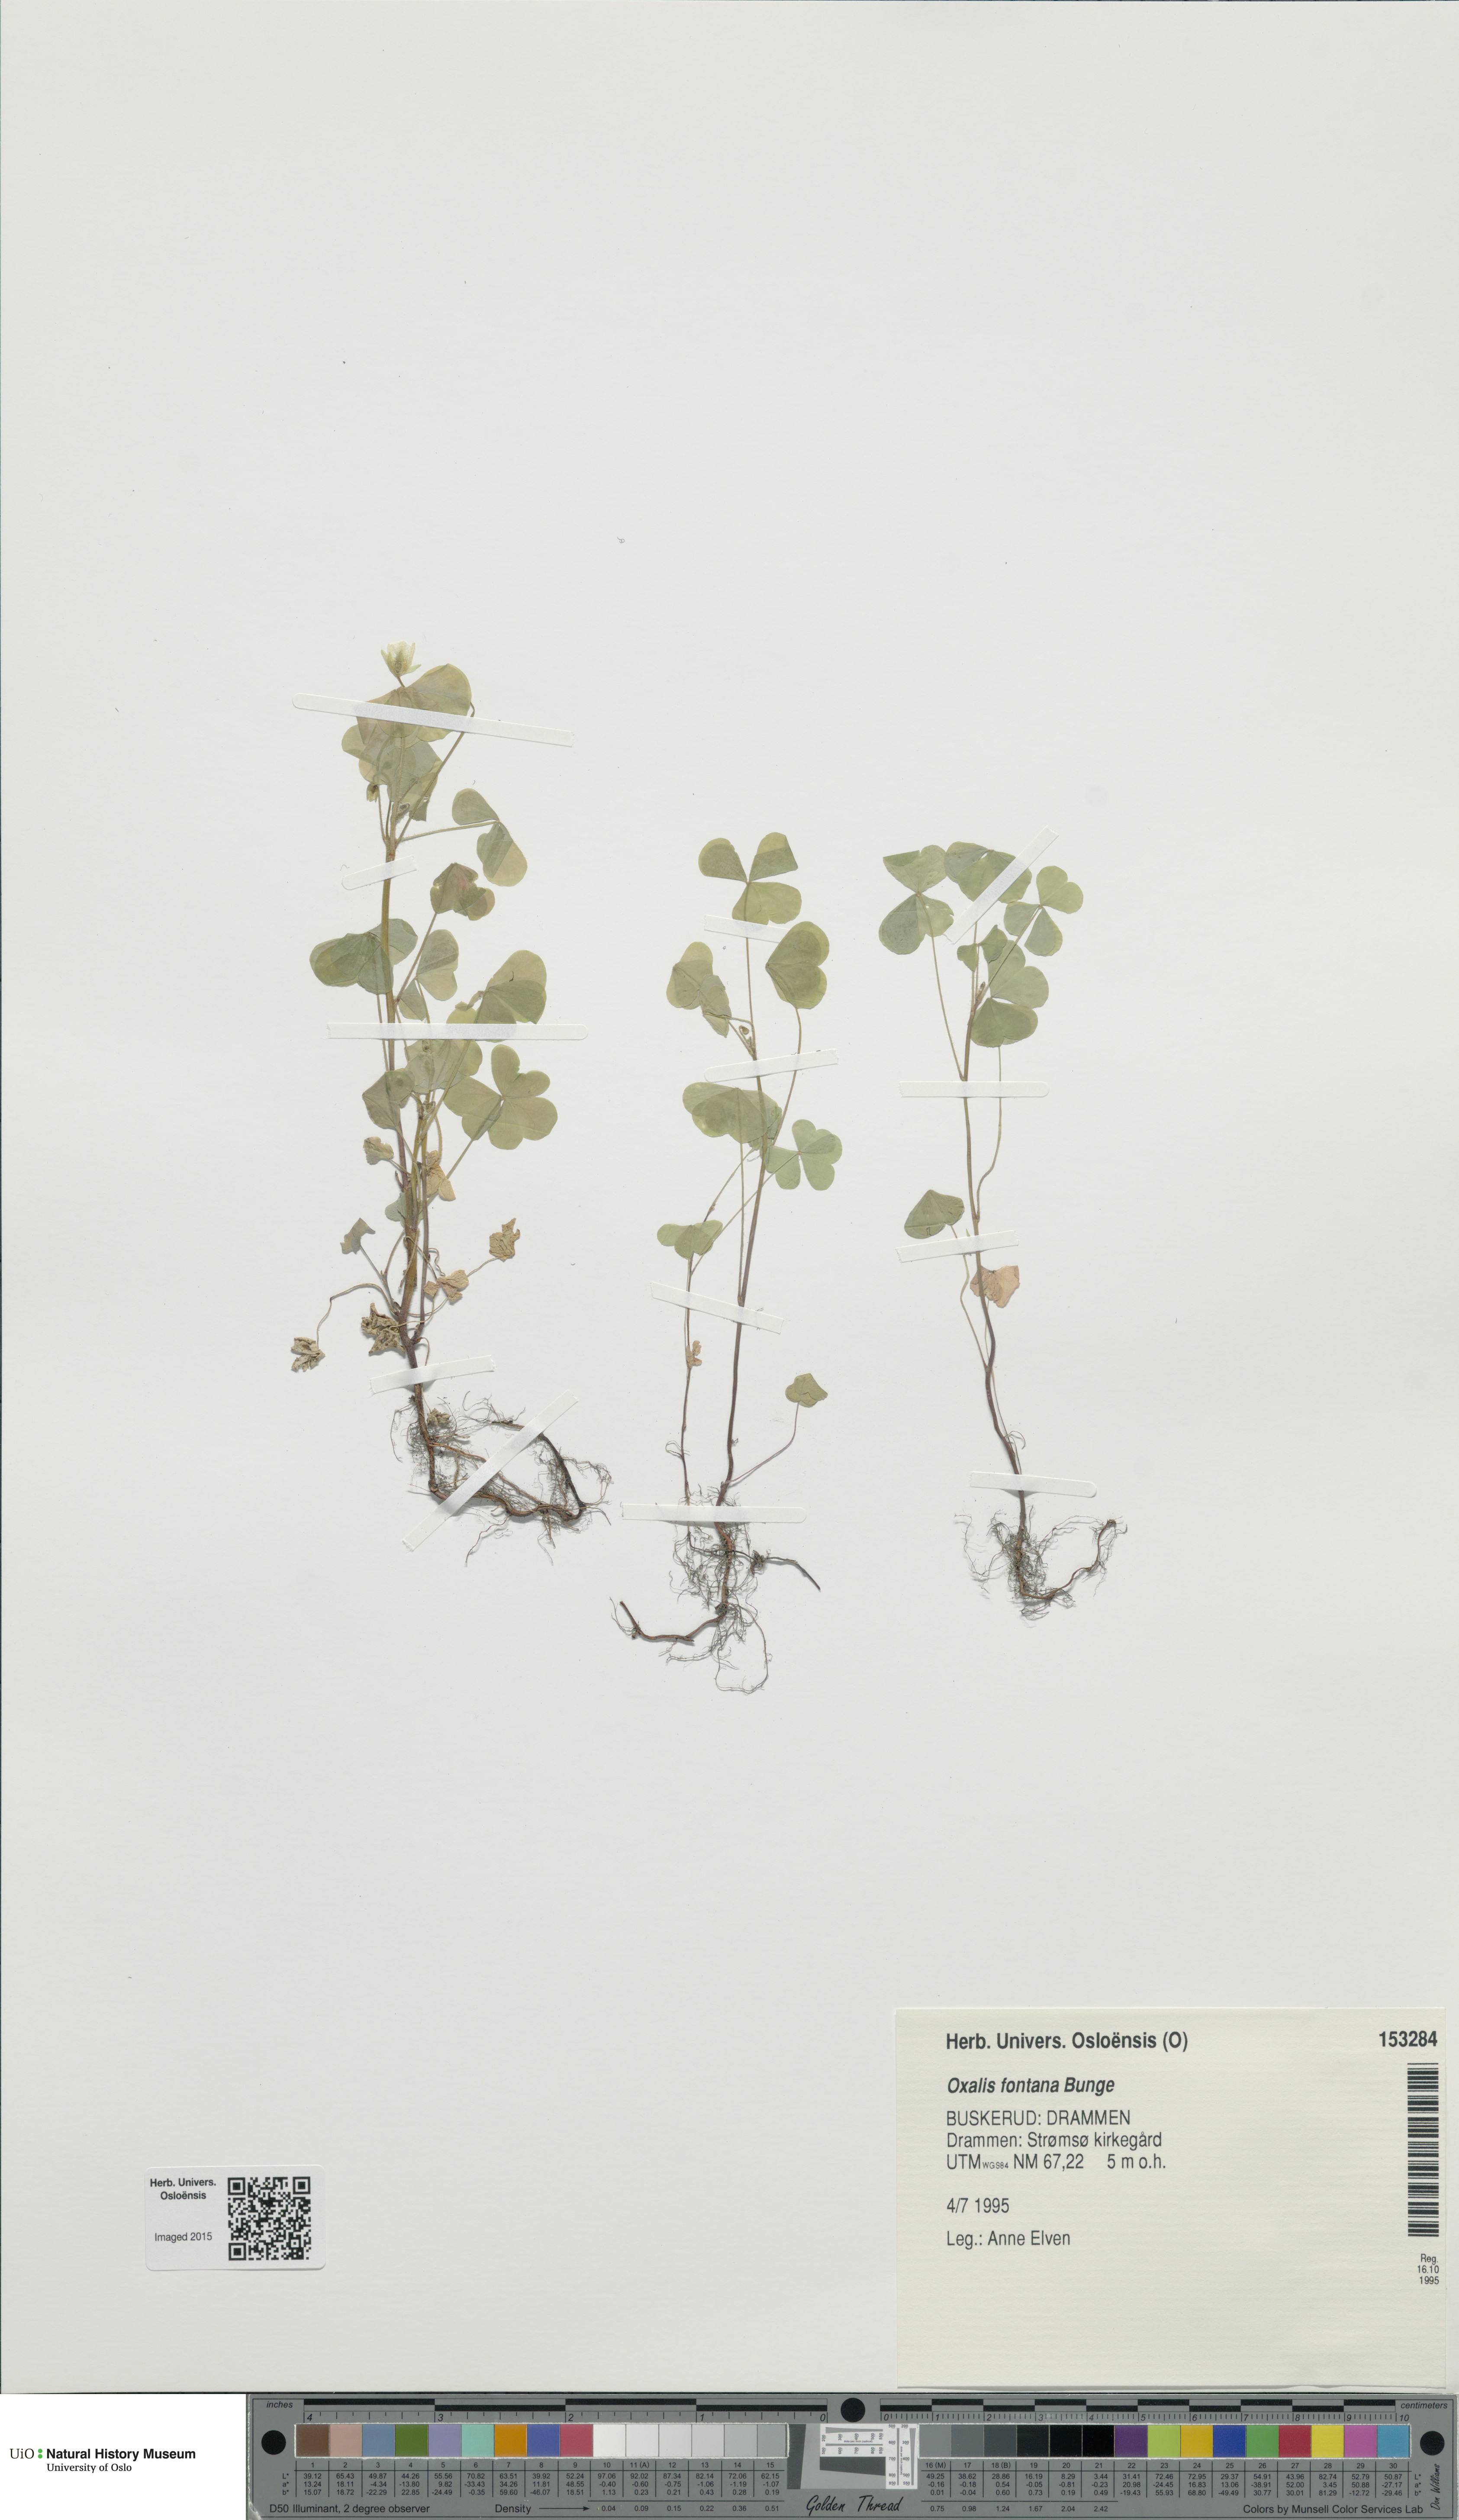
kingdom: Plantae
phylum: Tracheophyta
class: Magnoliopsida
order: Oxalidales
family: Oxalidaceae
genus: Oxalis
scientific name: Oxalis stricta
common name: Upright yellow-sorrel
